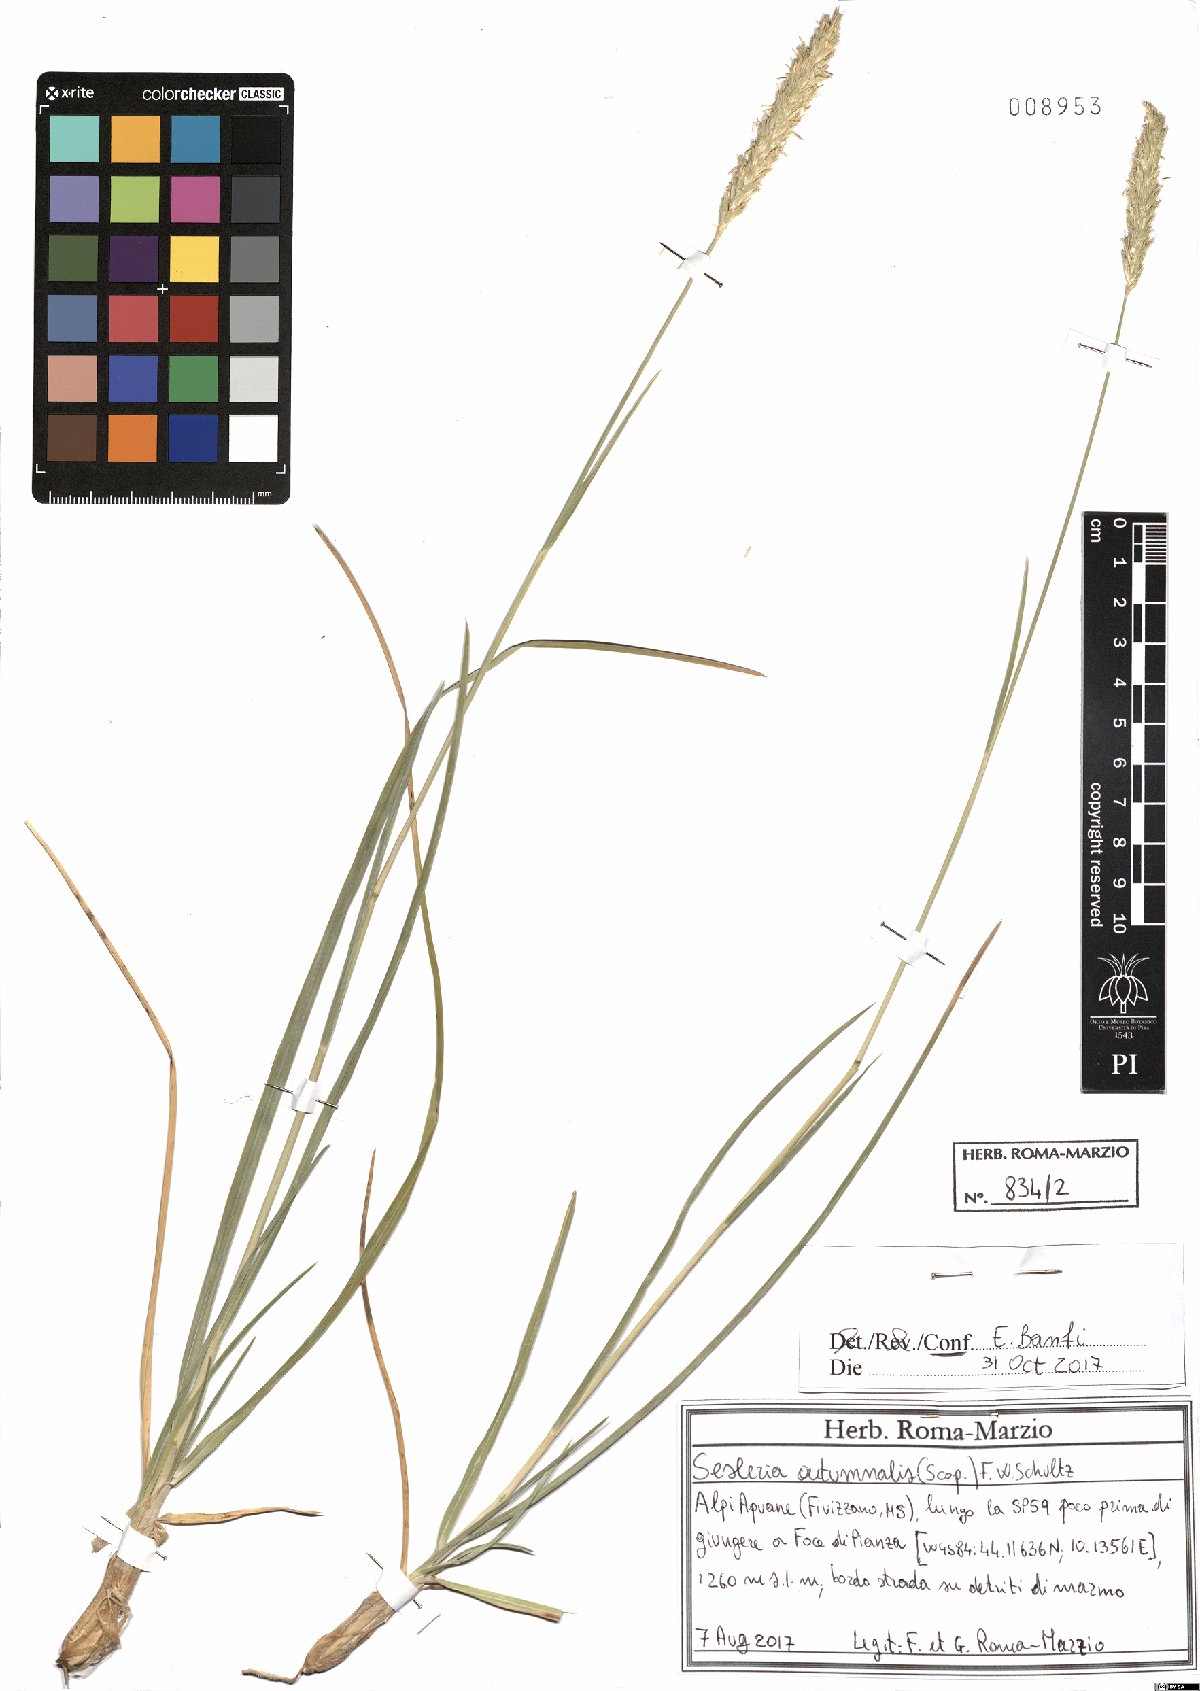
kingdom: Plantae
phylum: Tracheophyta
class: Liliopsida
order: Poales
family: Poaceae
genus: Sesleria
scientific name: Sesleria autumnalis
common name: Autumn moor grass
